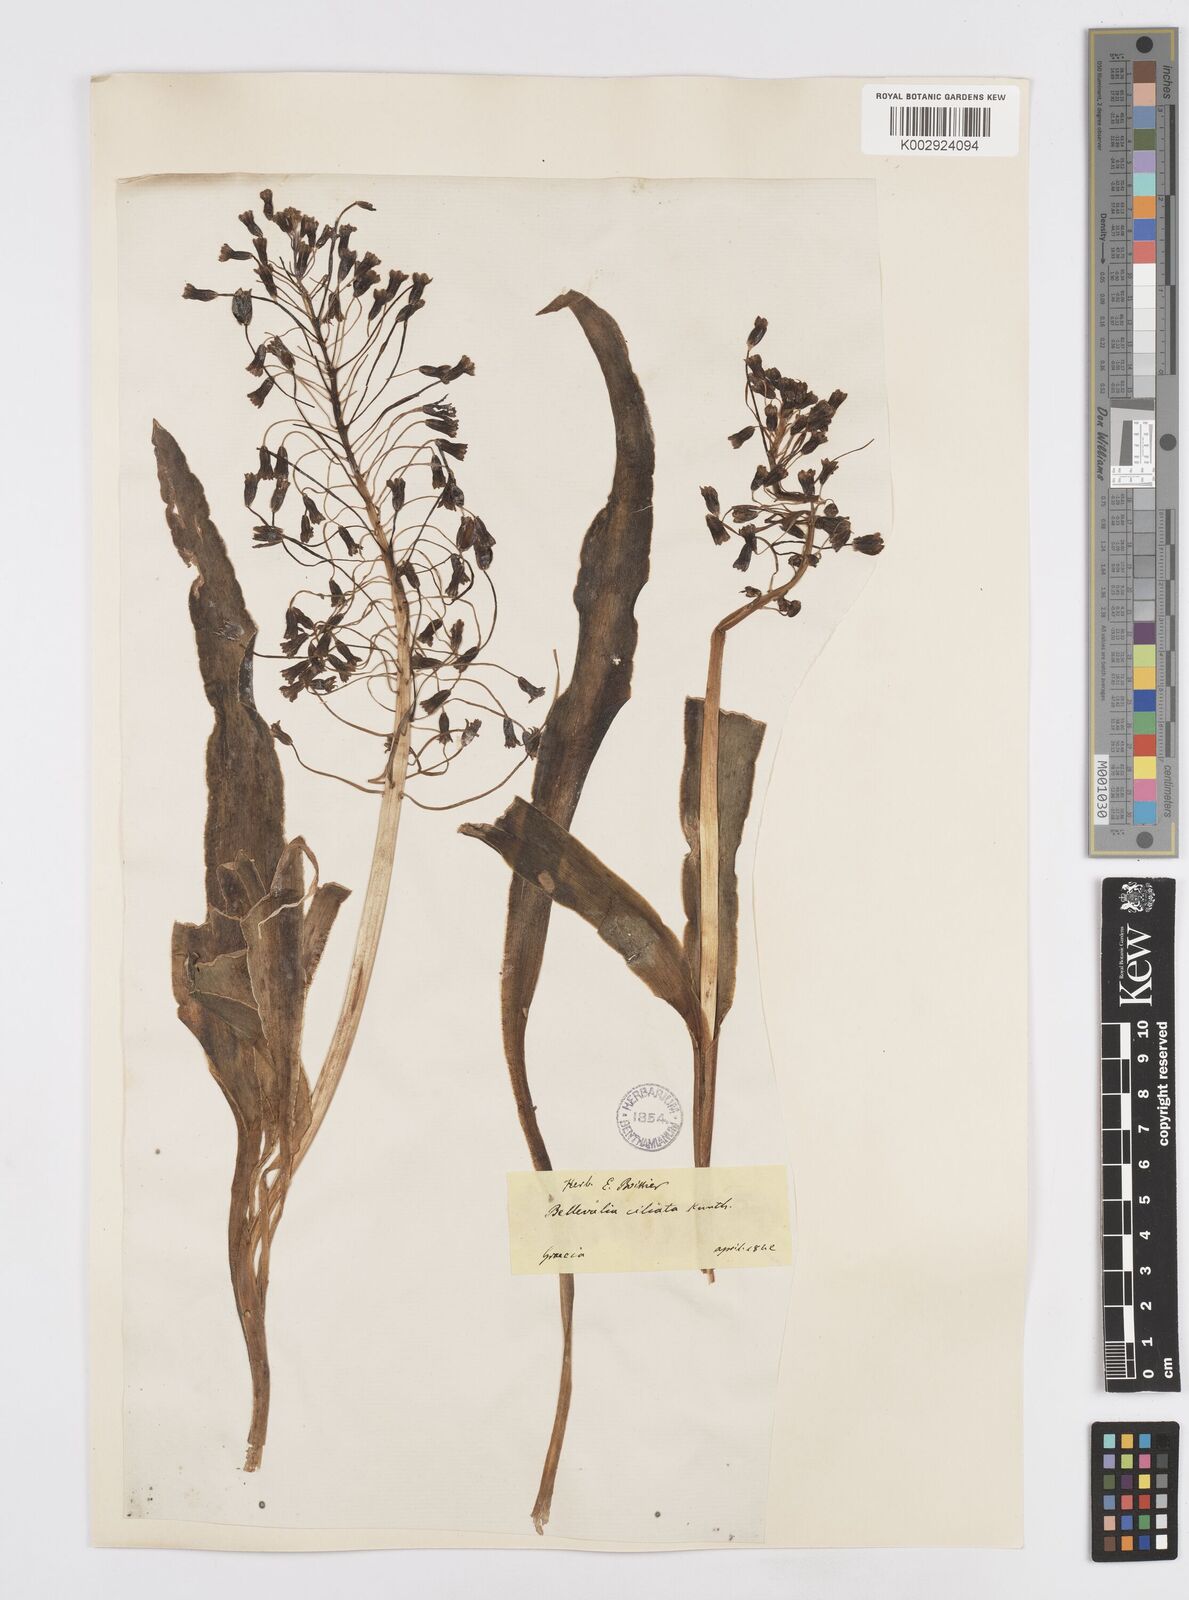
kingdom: Plantae
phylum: Tracheophyta
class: Liliopsida
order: Asparagales
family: Asparagaceae
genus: Bellevalia
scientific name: Bellevalia ciliata
